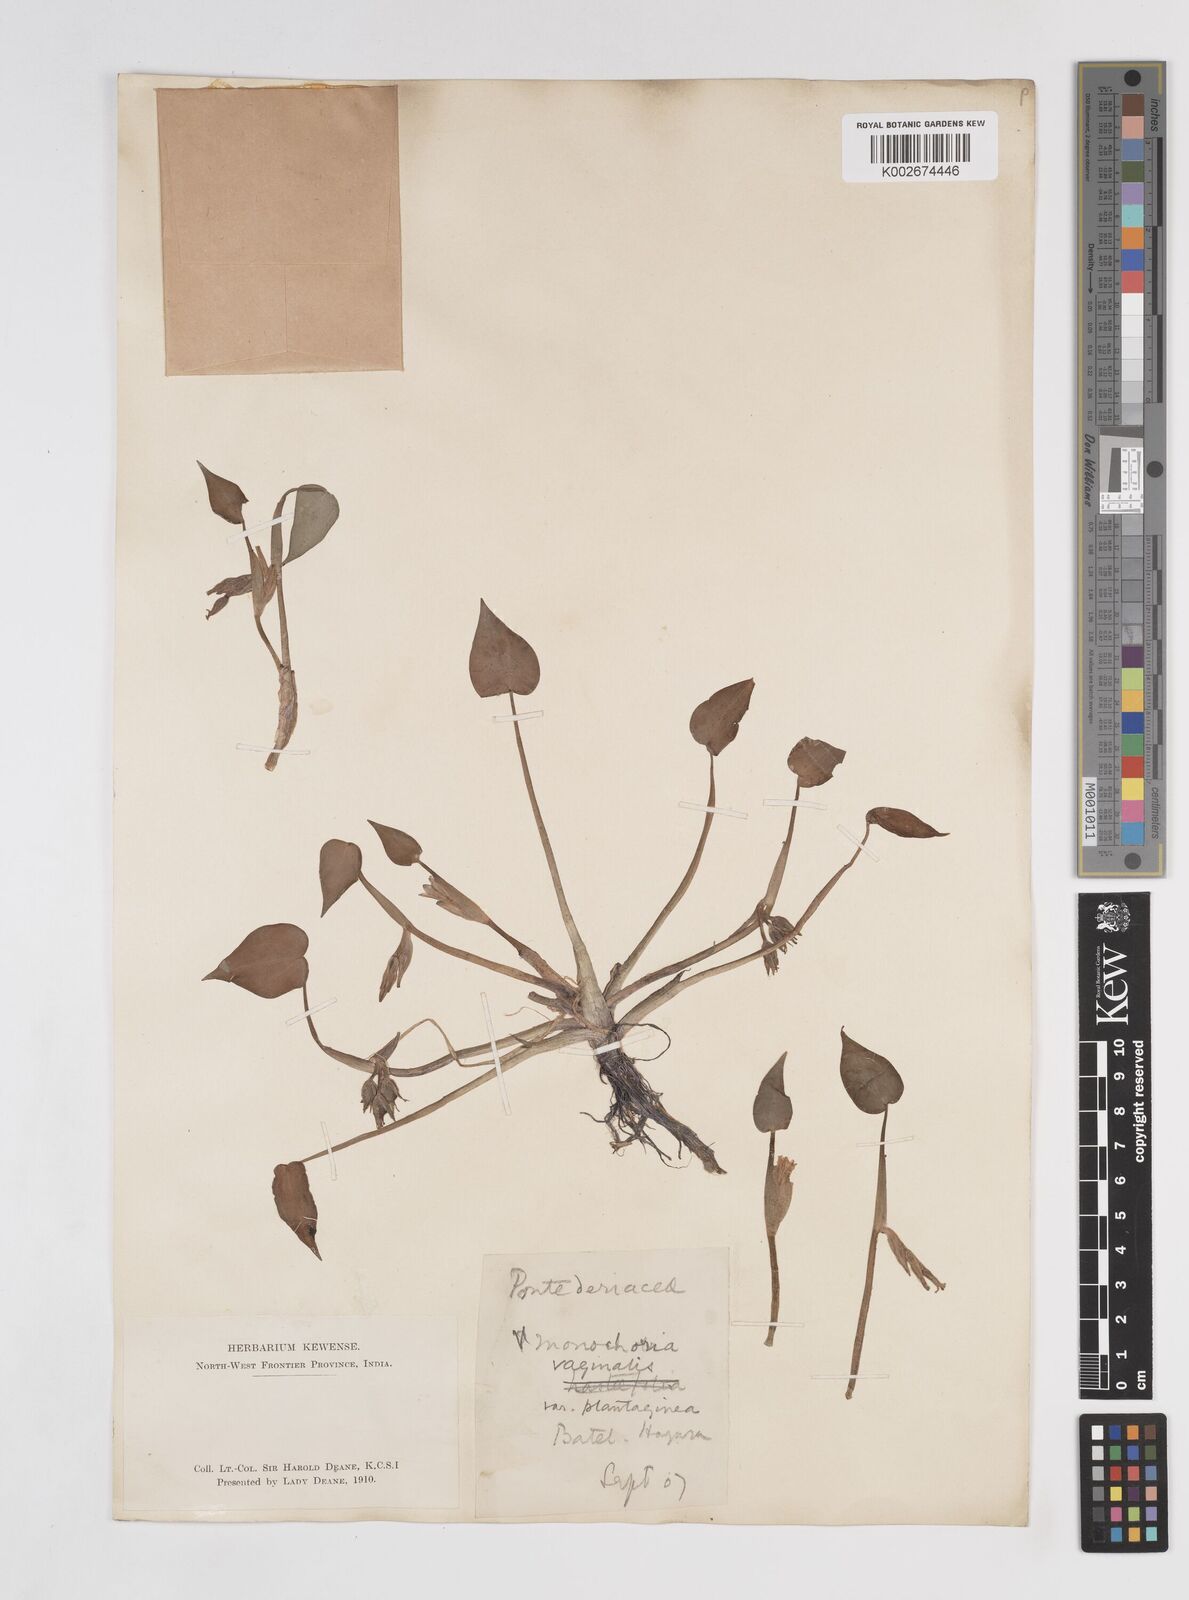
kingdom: Plantae
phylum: Tracheophyta
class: Liliopsida
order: Commelinales
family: Pontederiaceae
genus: Pontederia
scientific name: Pontederia vaginalis
